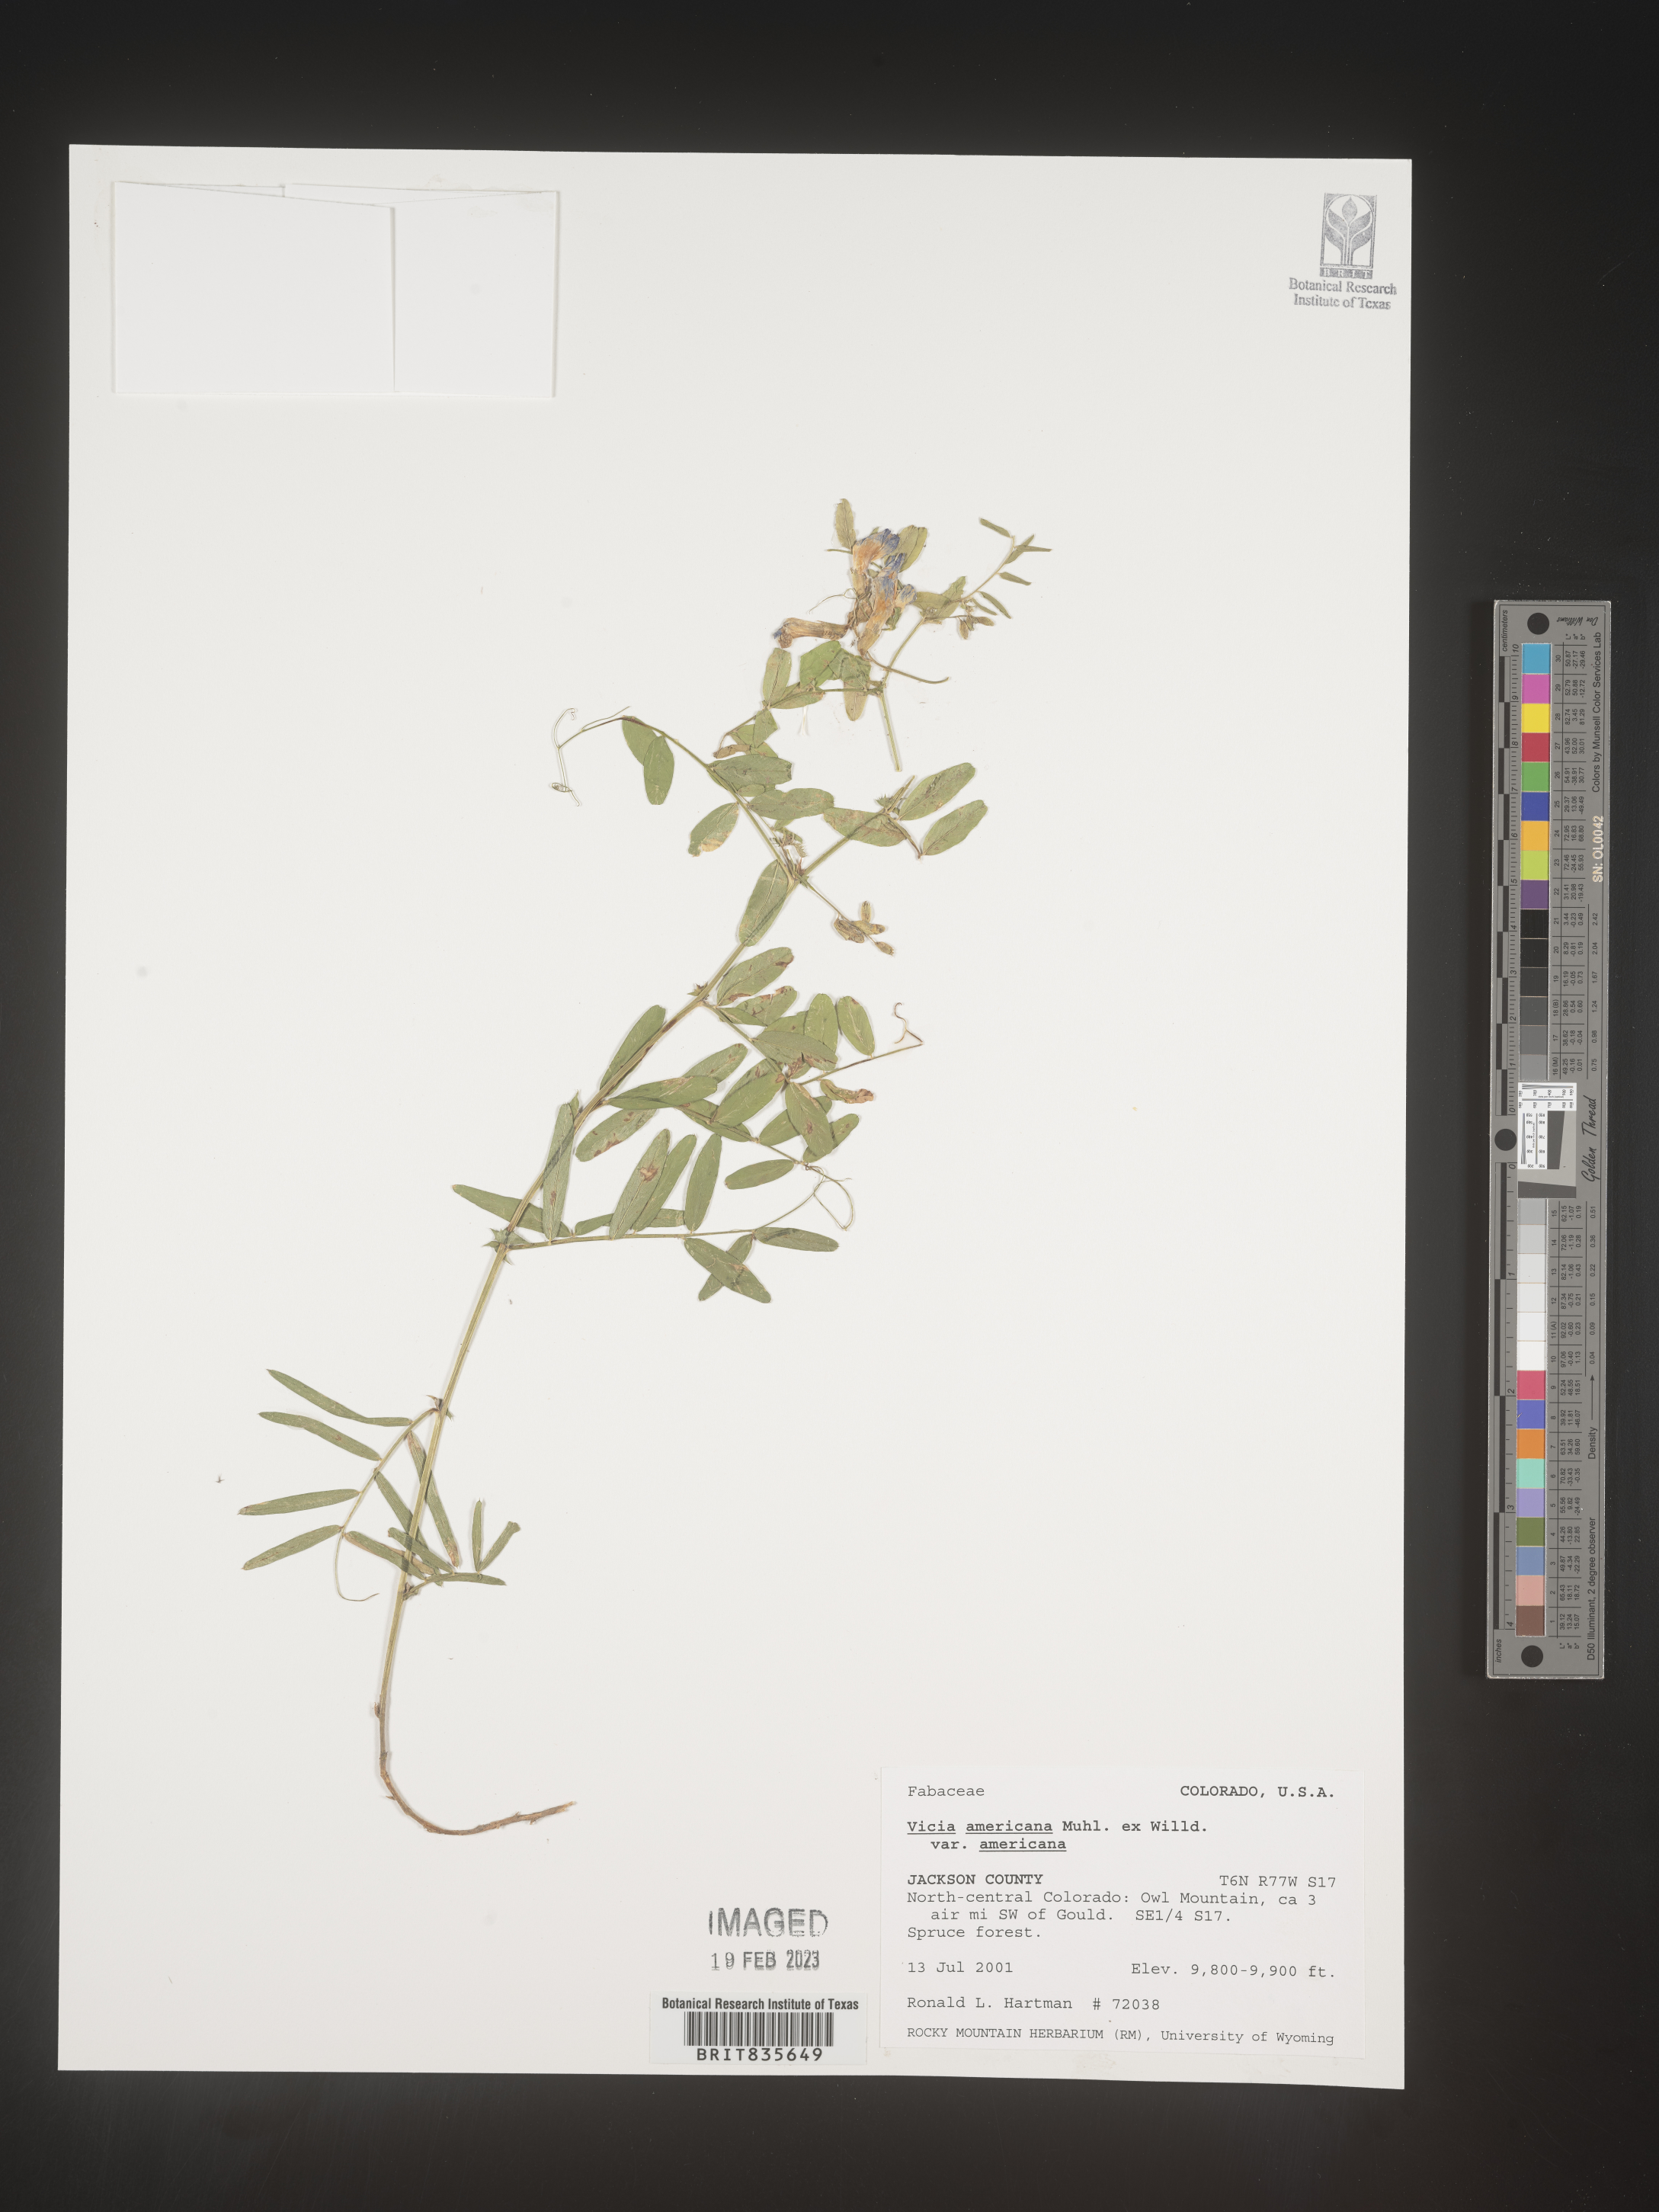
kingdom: Plantae
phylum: Tracheophyta
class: Magnoliopsida
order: Fabales
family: Fabaceae
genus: Vicia
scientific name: Vicia americana
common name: American vetch
